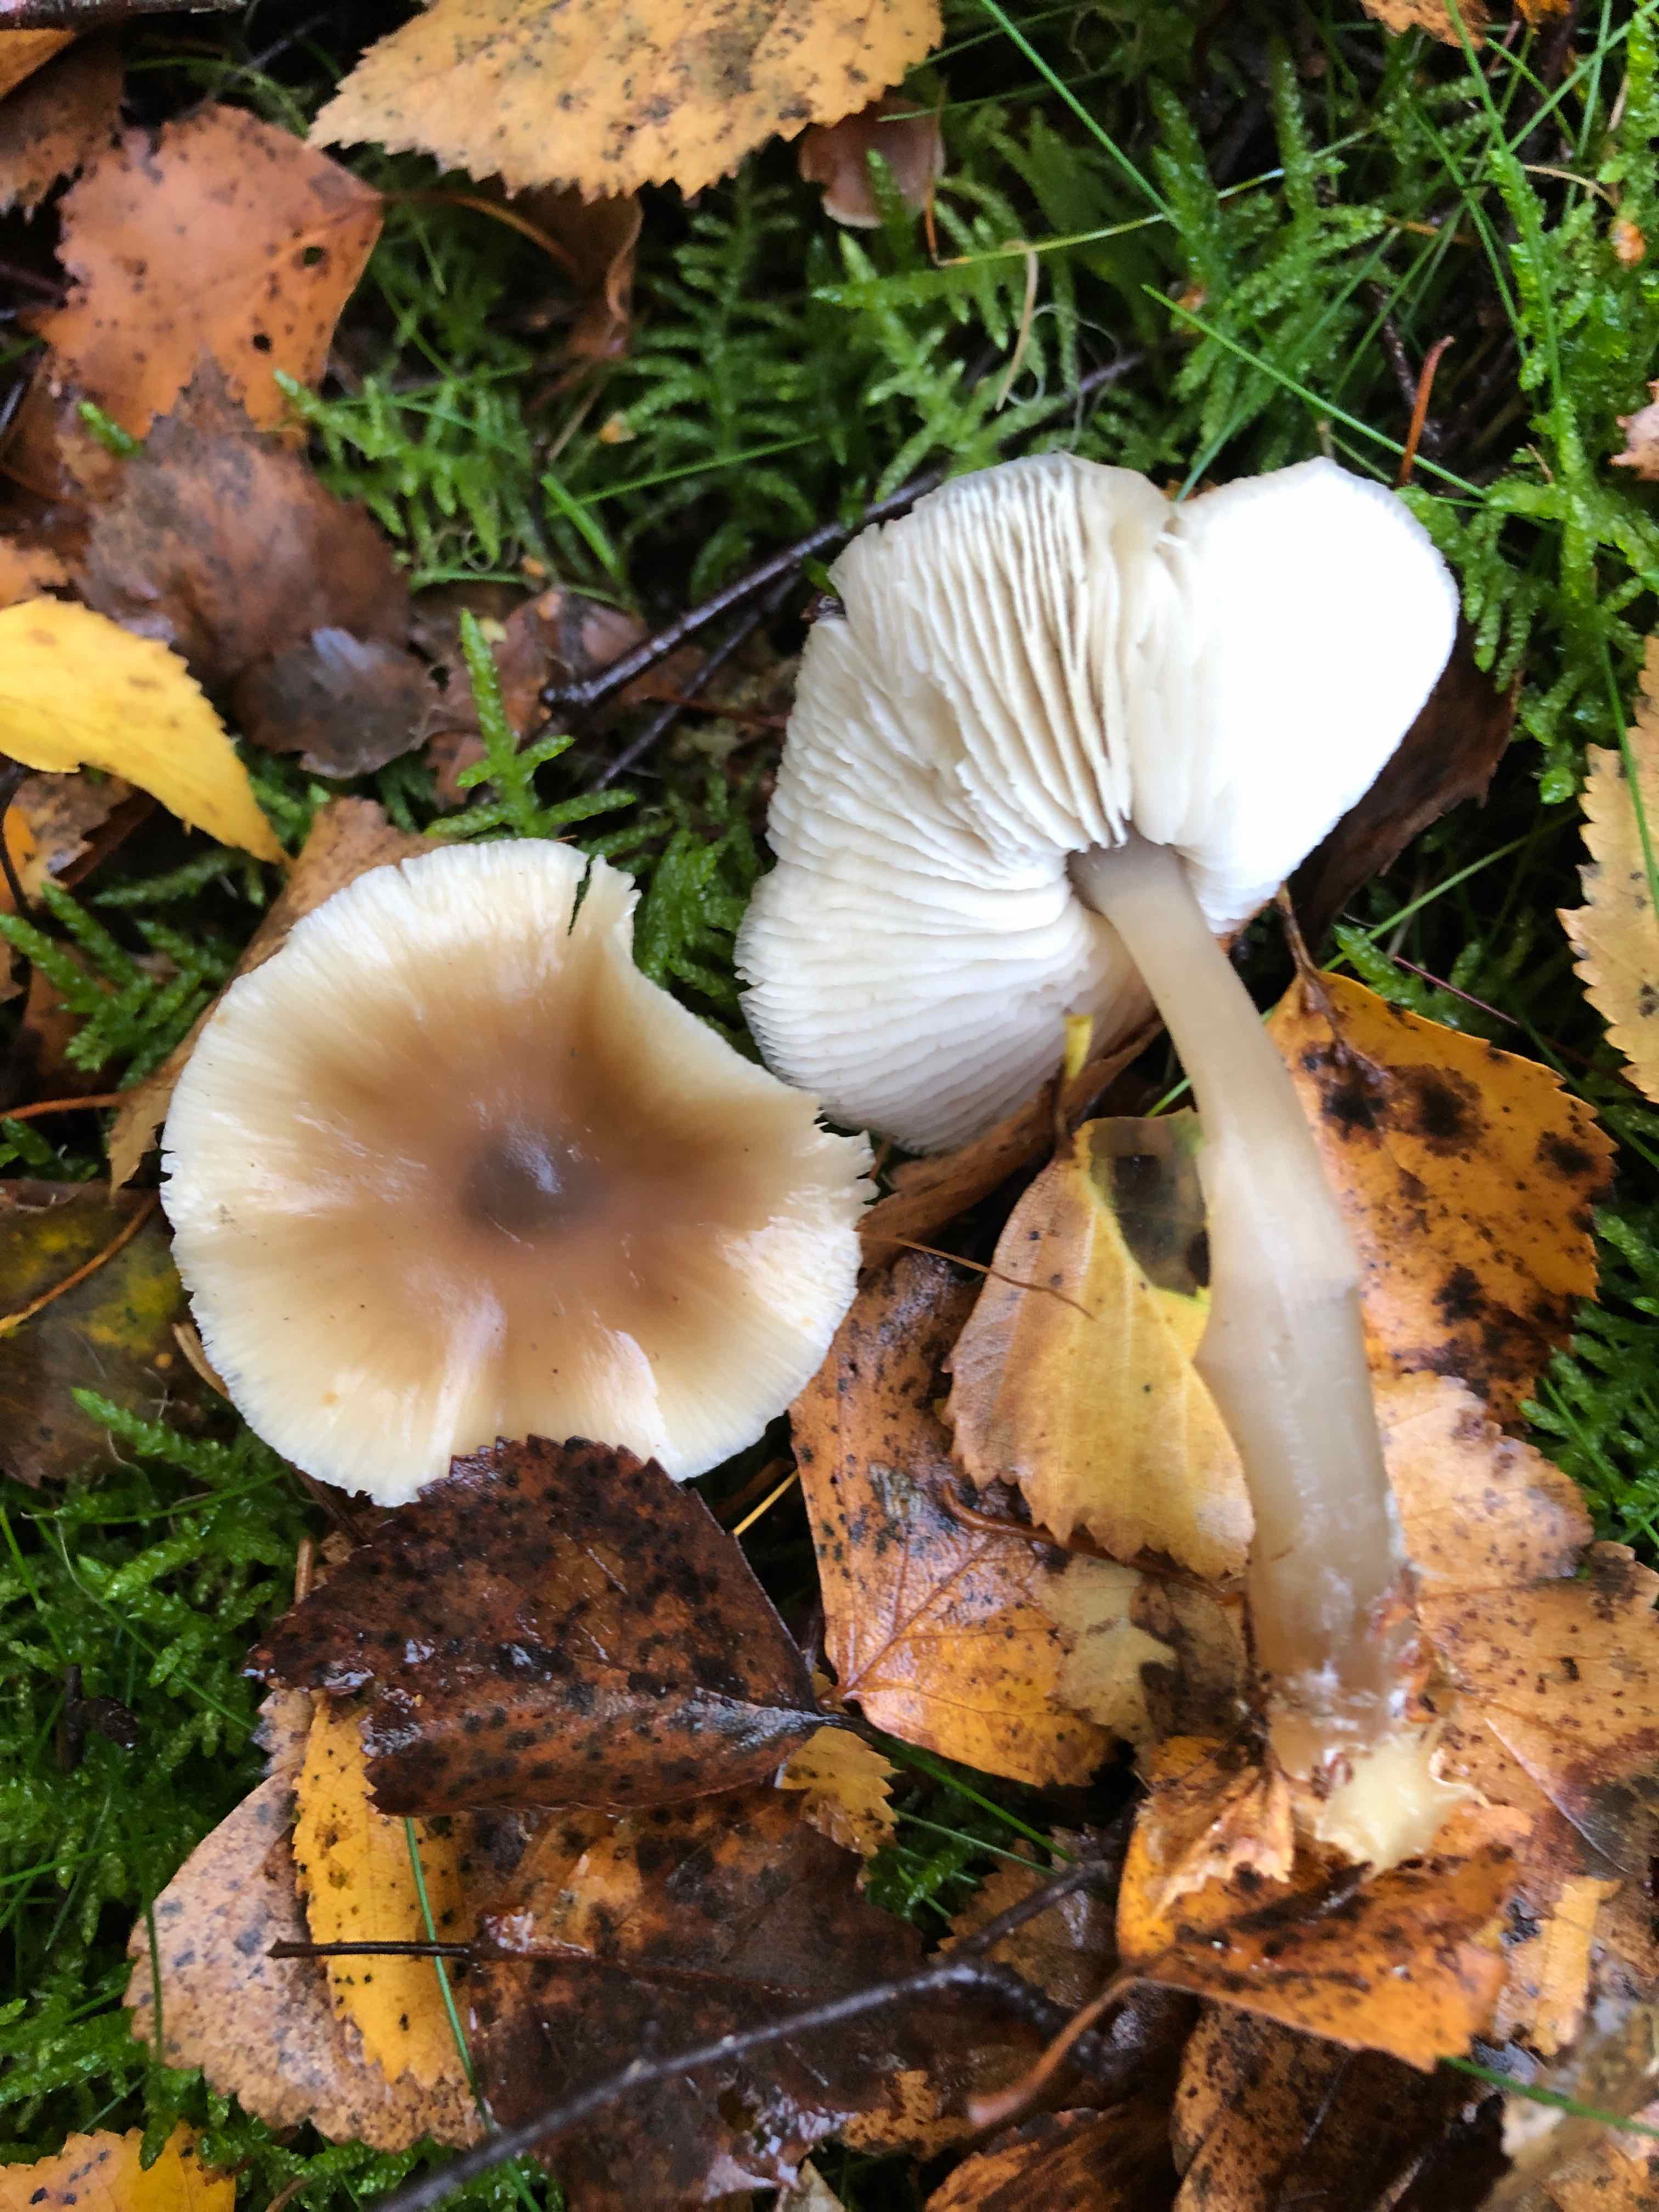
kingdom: Fungi
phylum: Basidiomycota
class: Agaricomycetes
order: Agaricales
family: Omphalotaceae
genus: Rhodocollybia
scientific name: Rhodocollybia asema
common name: horngrå fladhat
